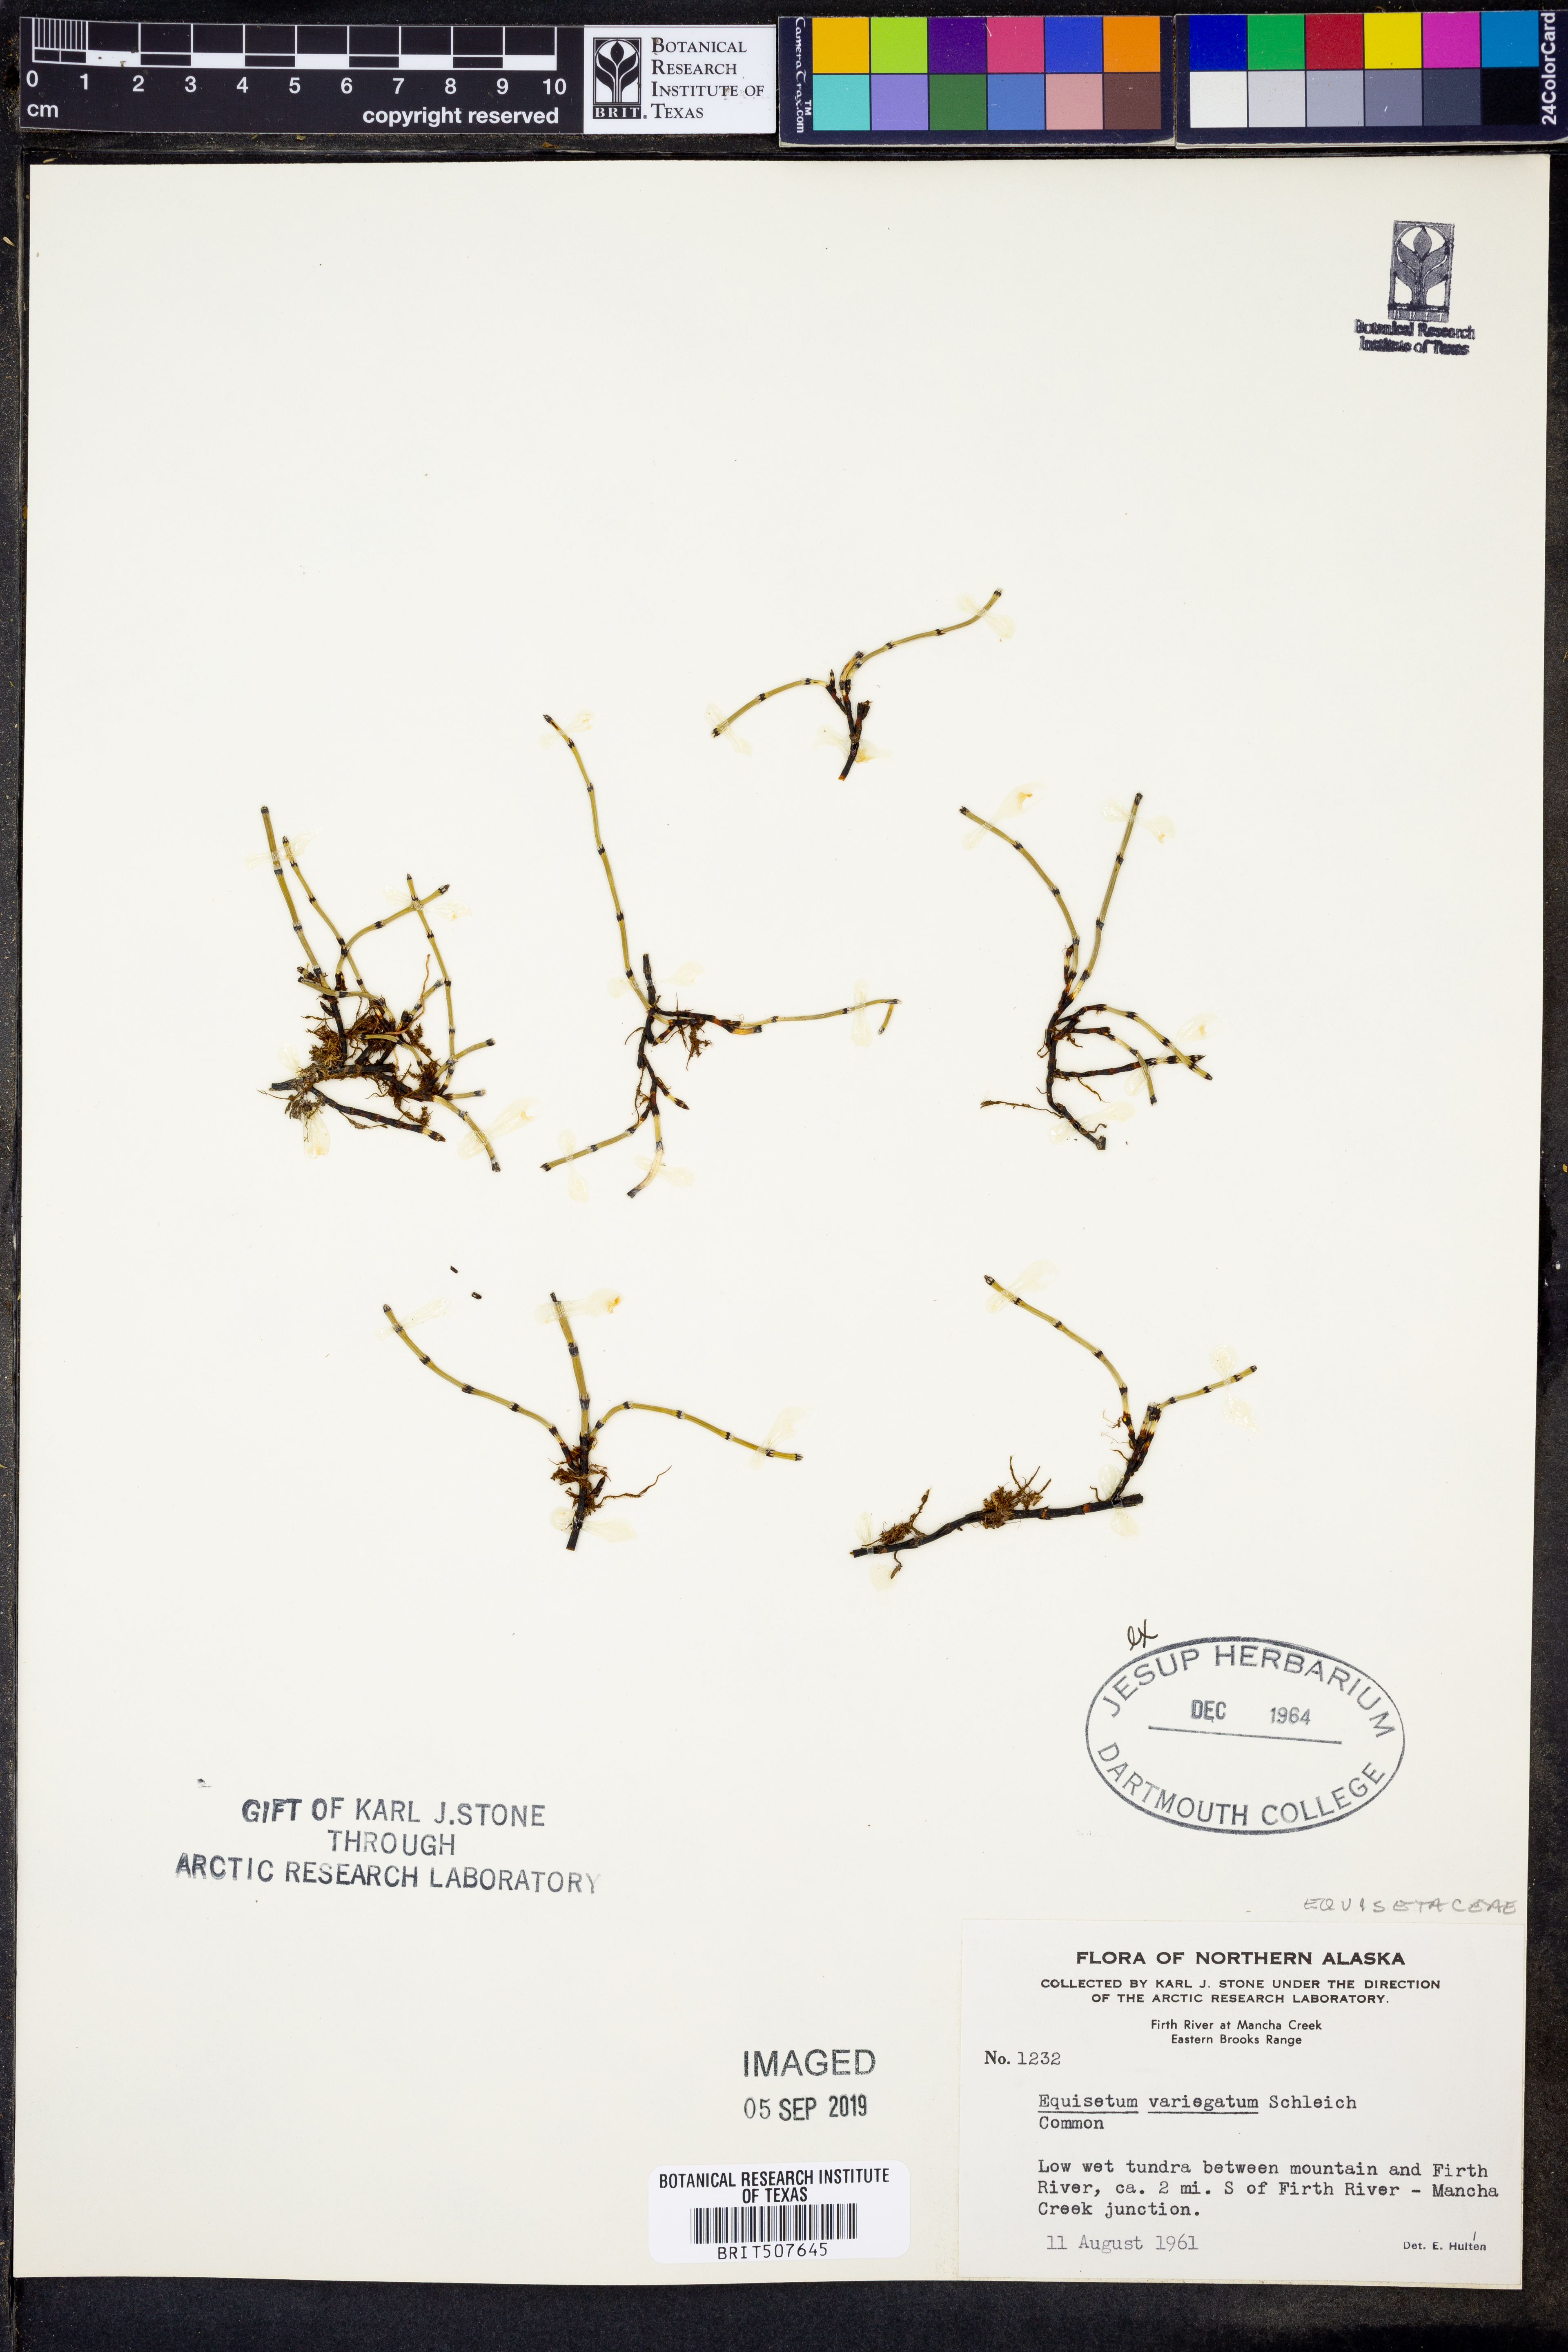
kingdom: Plantae
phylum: Tracheophyta
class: Polypodiopsida
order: Equisetales
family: Equisetaceae
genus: Equisetum
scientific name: Equisetum variegatum
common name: Variegated horsetail
